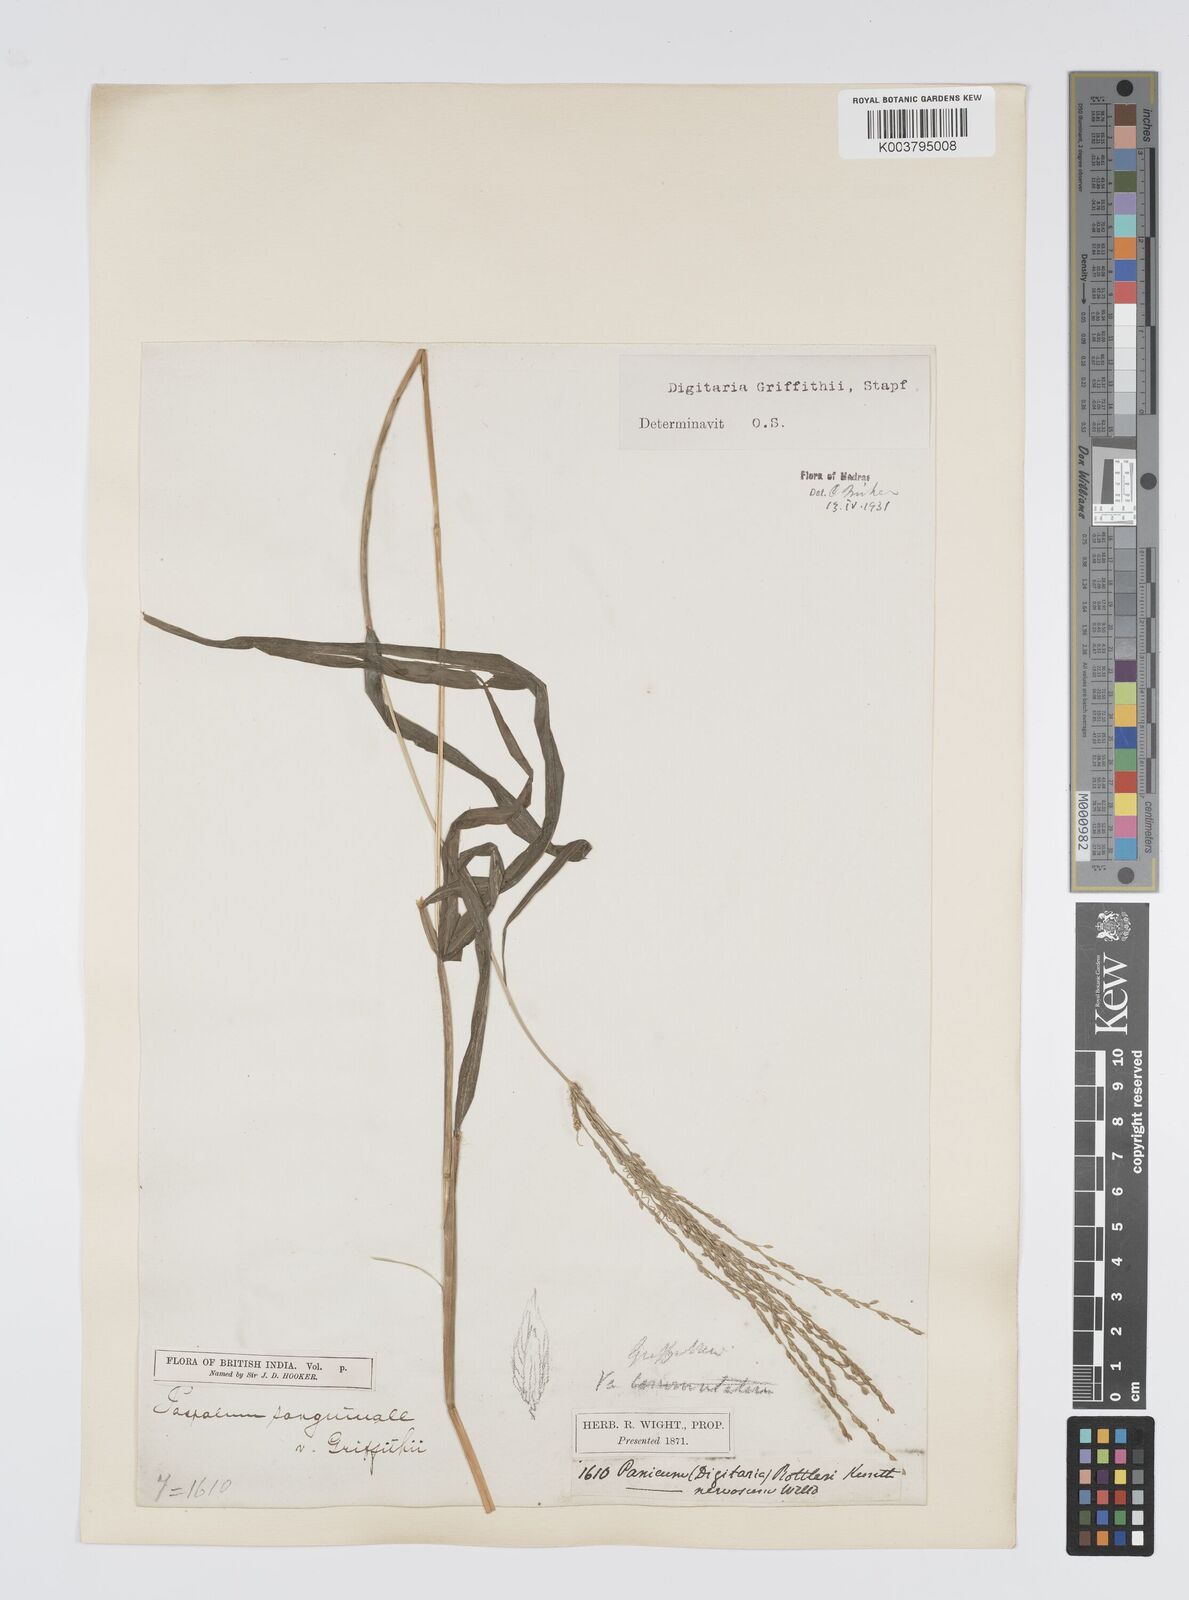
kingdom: Plantae
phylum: Tracheophyta
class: Liliopsida
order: Poales
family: Poaceae
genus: Digitaria
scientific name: Digitaria griffithii
